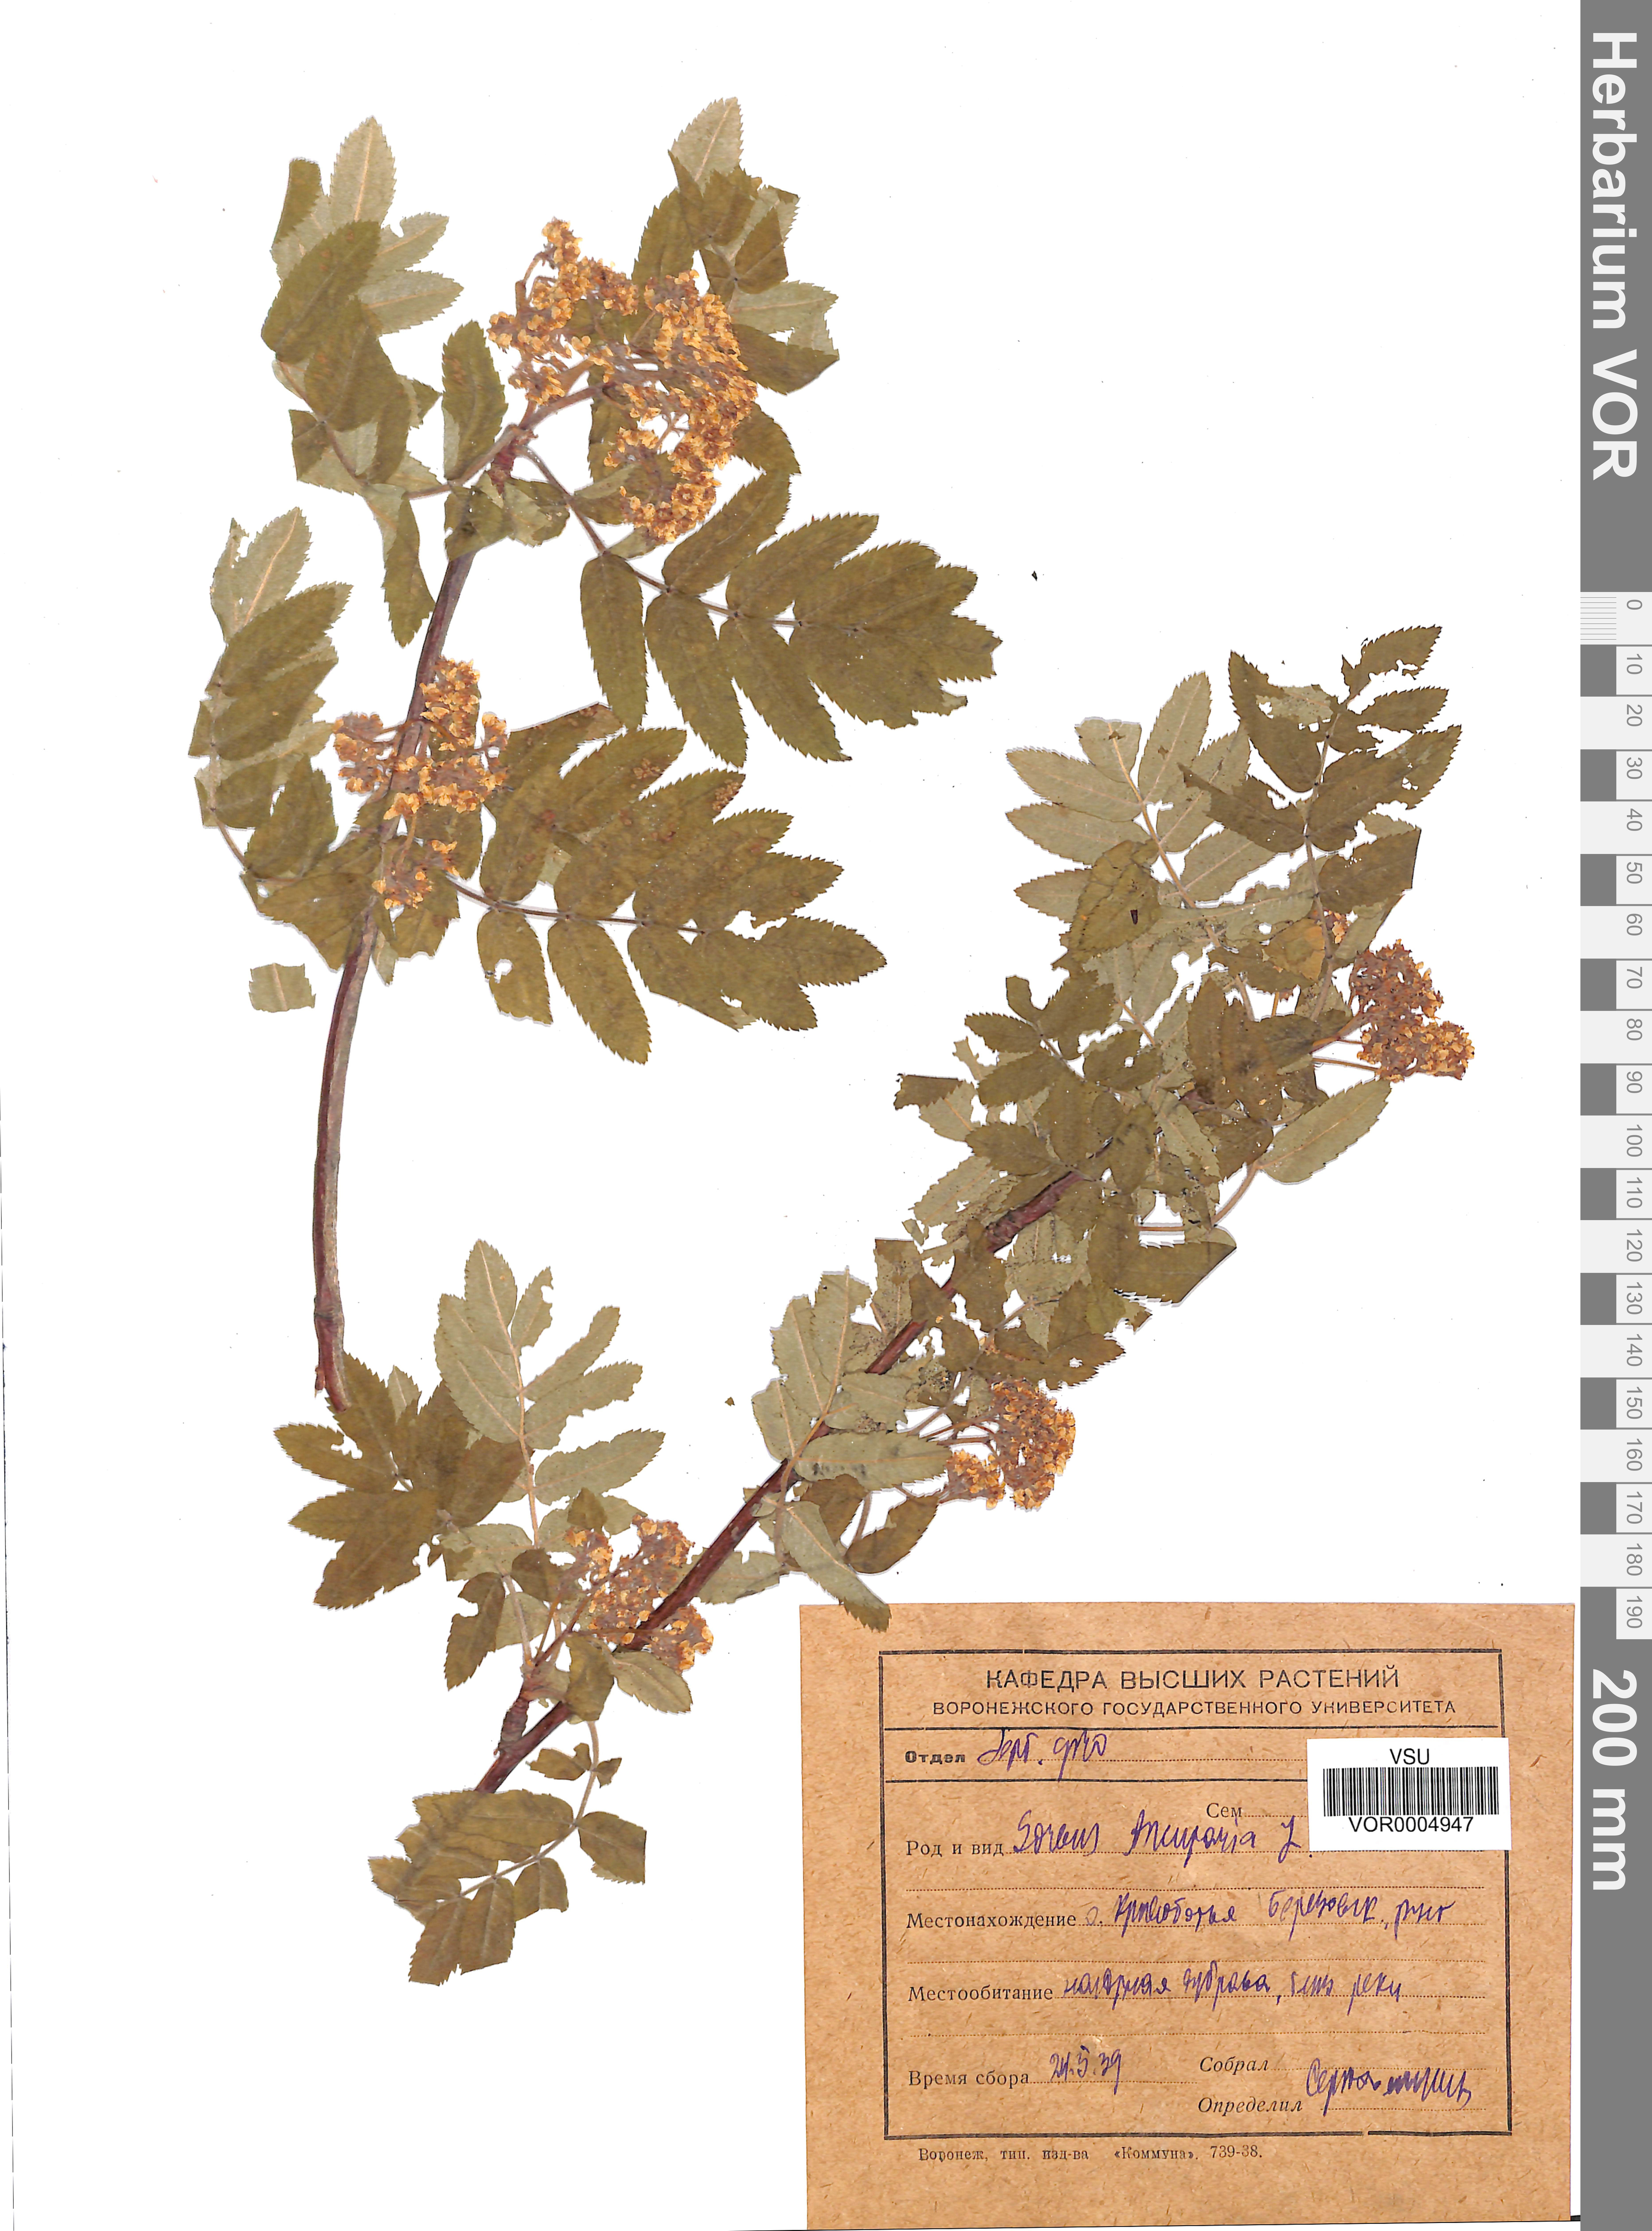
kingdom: Plantae
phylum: Tracheophyta
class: Magnoliopsida
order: Rosales
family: Rosaceae
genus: Sorbus
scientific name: Sorbus aucuparia
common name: Rowan
